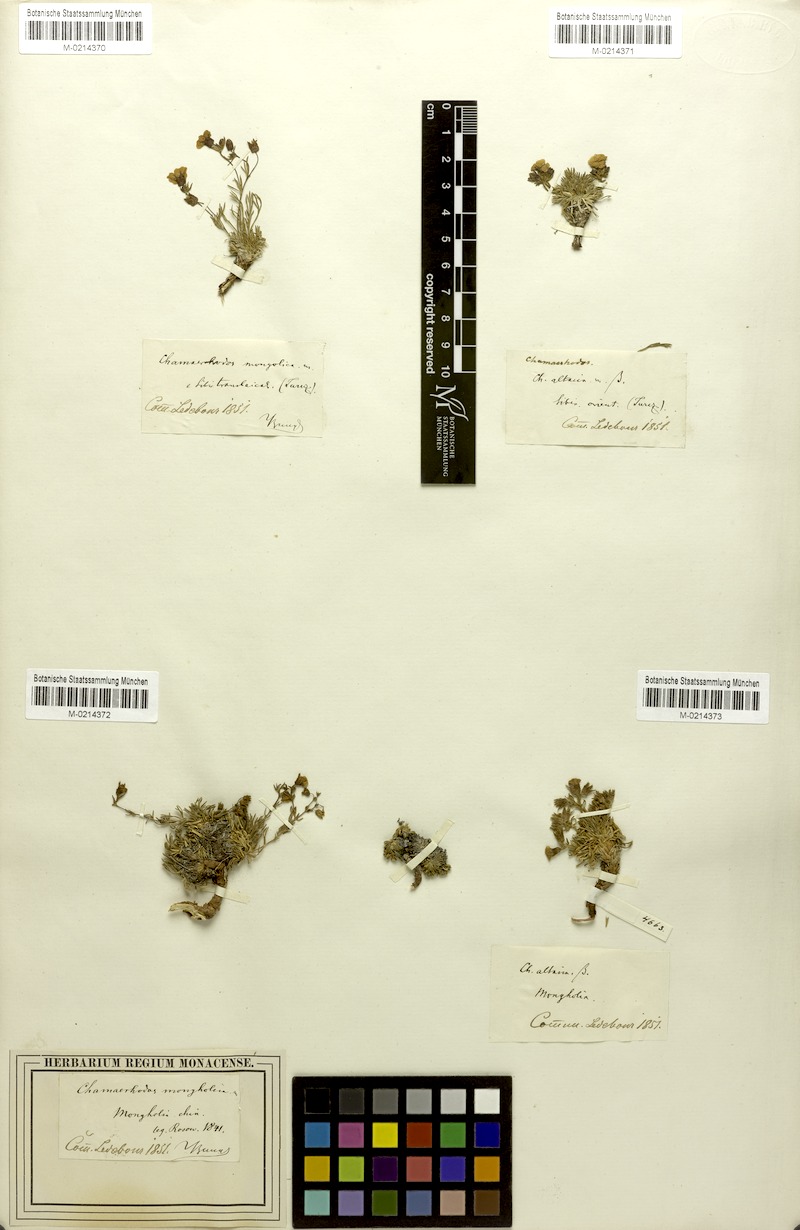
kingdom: Plantae
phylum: Tracheophyta
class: Magnoliopsida
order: Rosales
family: Rosaceae
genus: Chamaerhodos
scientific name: Chamaerhodos altaica
